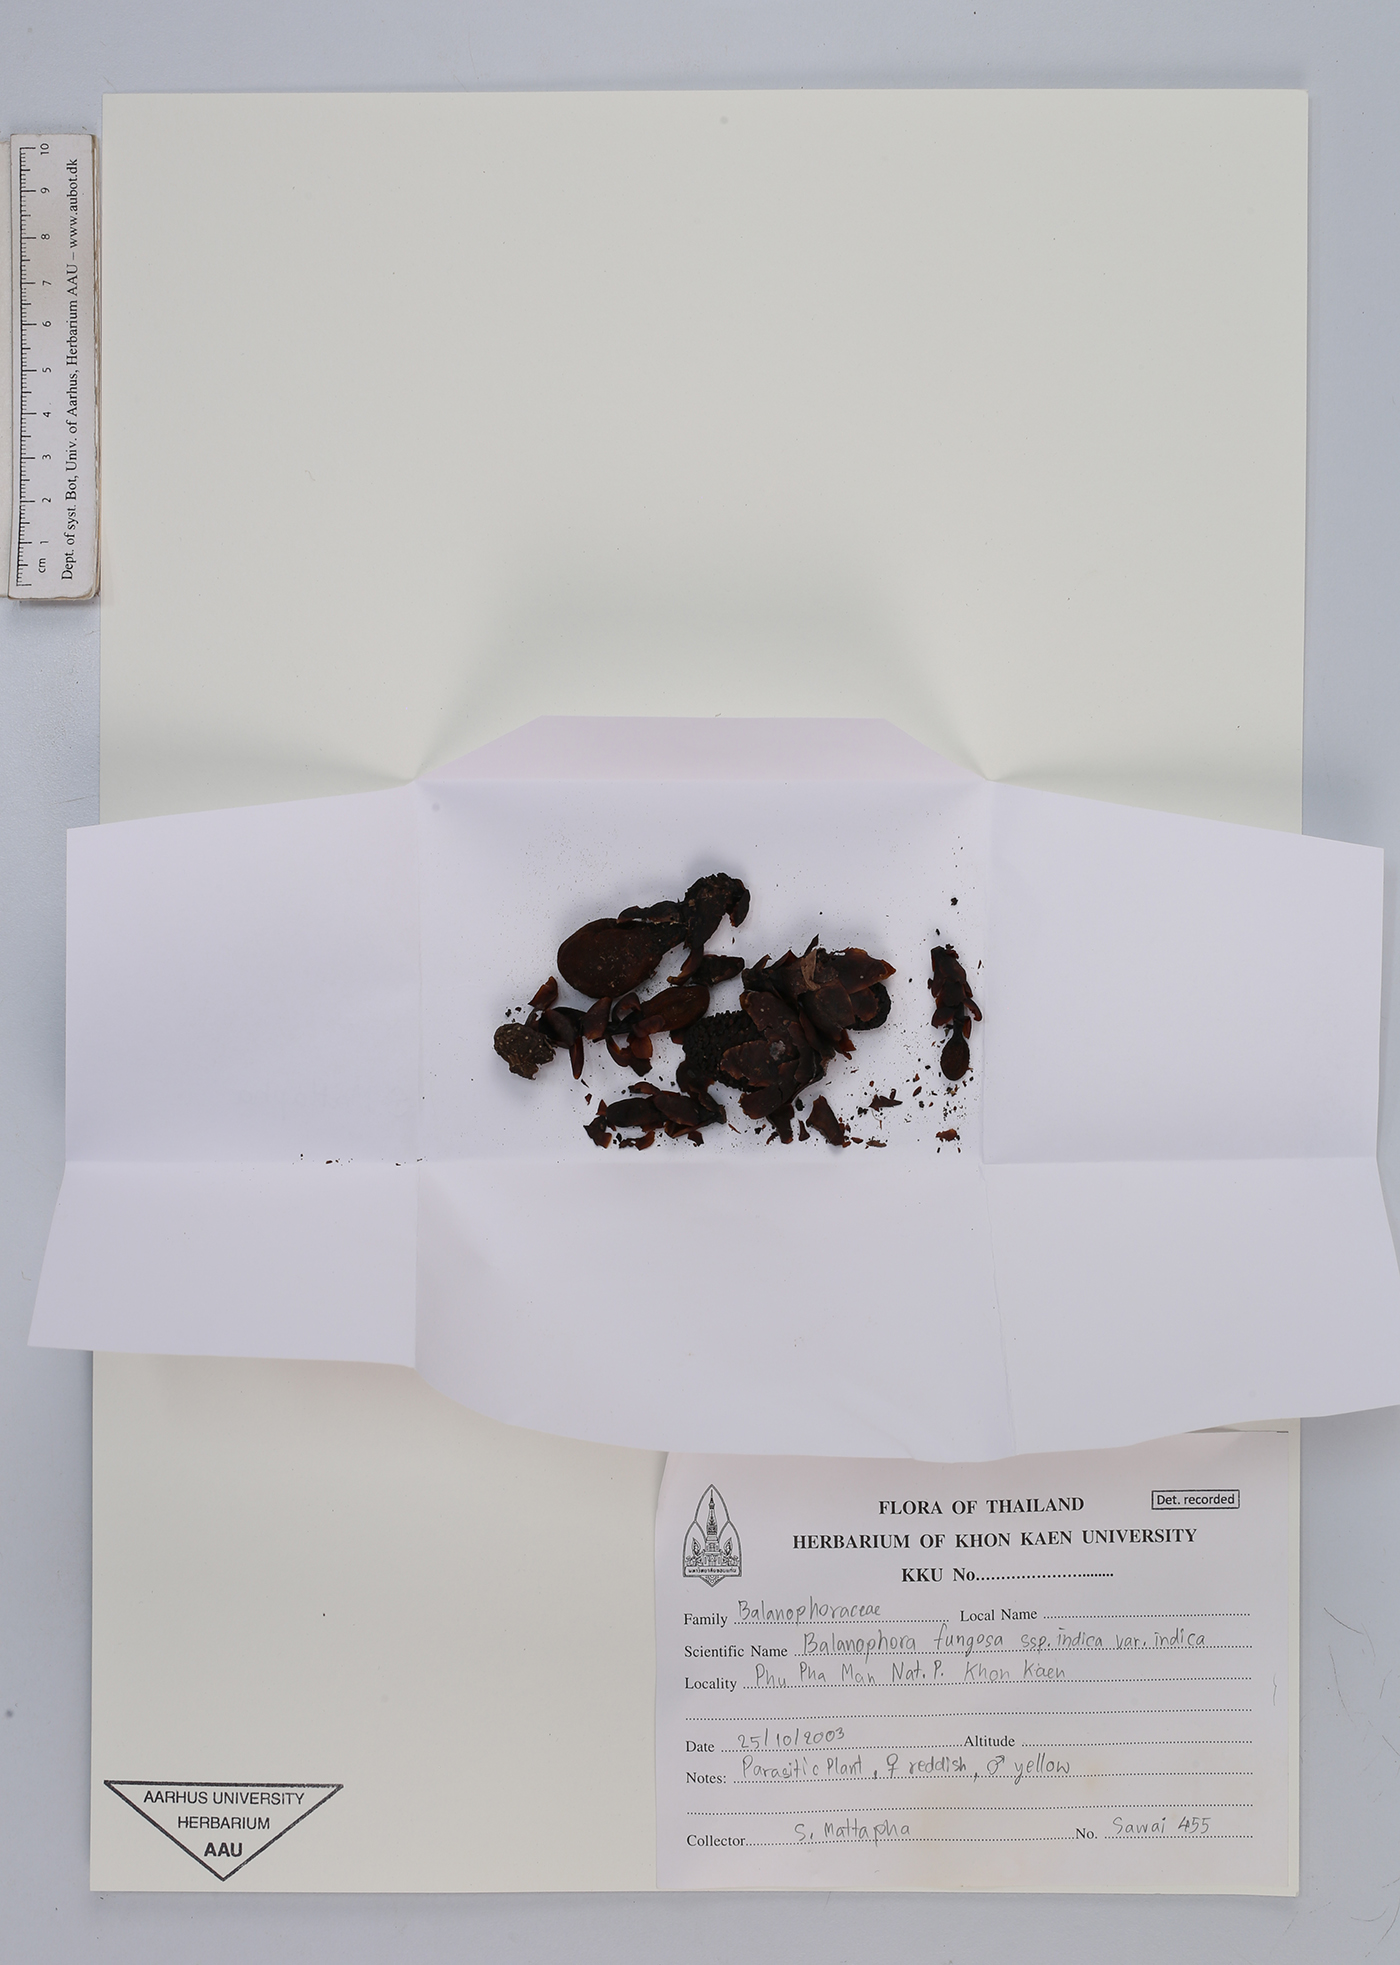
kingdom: Plantae
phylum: Tracheophyta
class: Magnoliopsida
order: Santalales
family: Balanophoraceae
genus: Balanophora
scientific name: Balanophora fungosa
